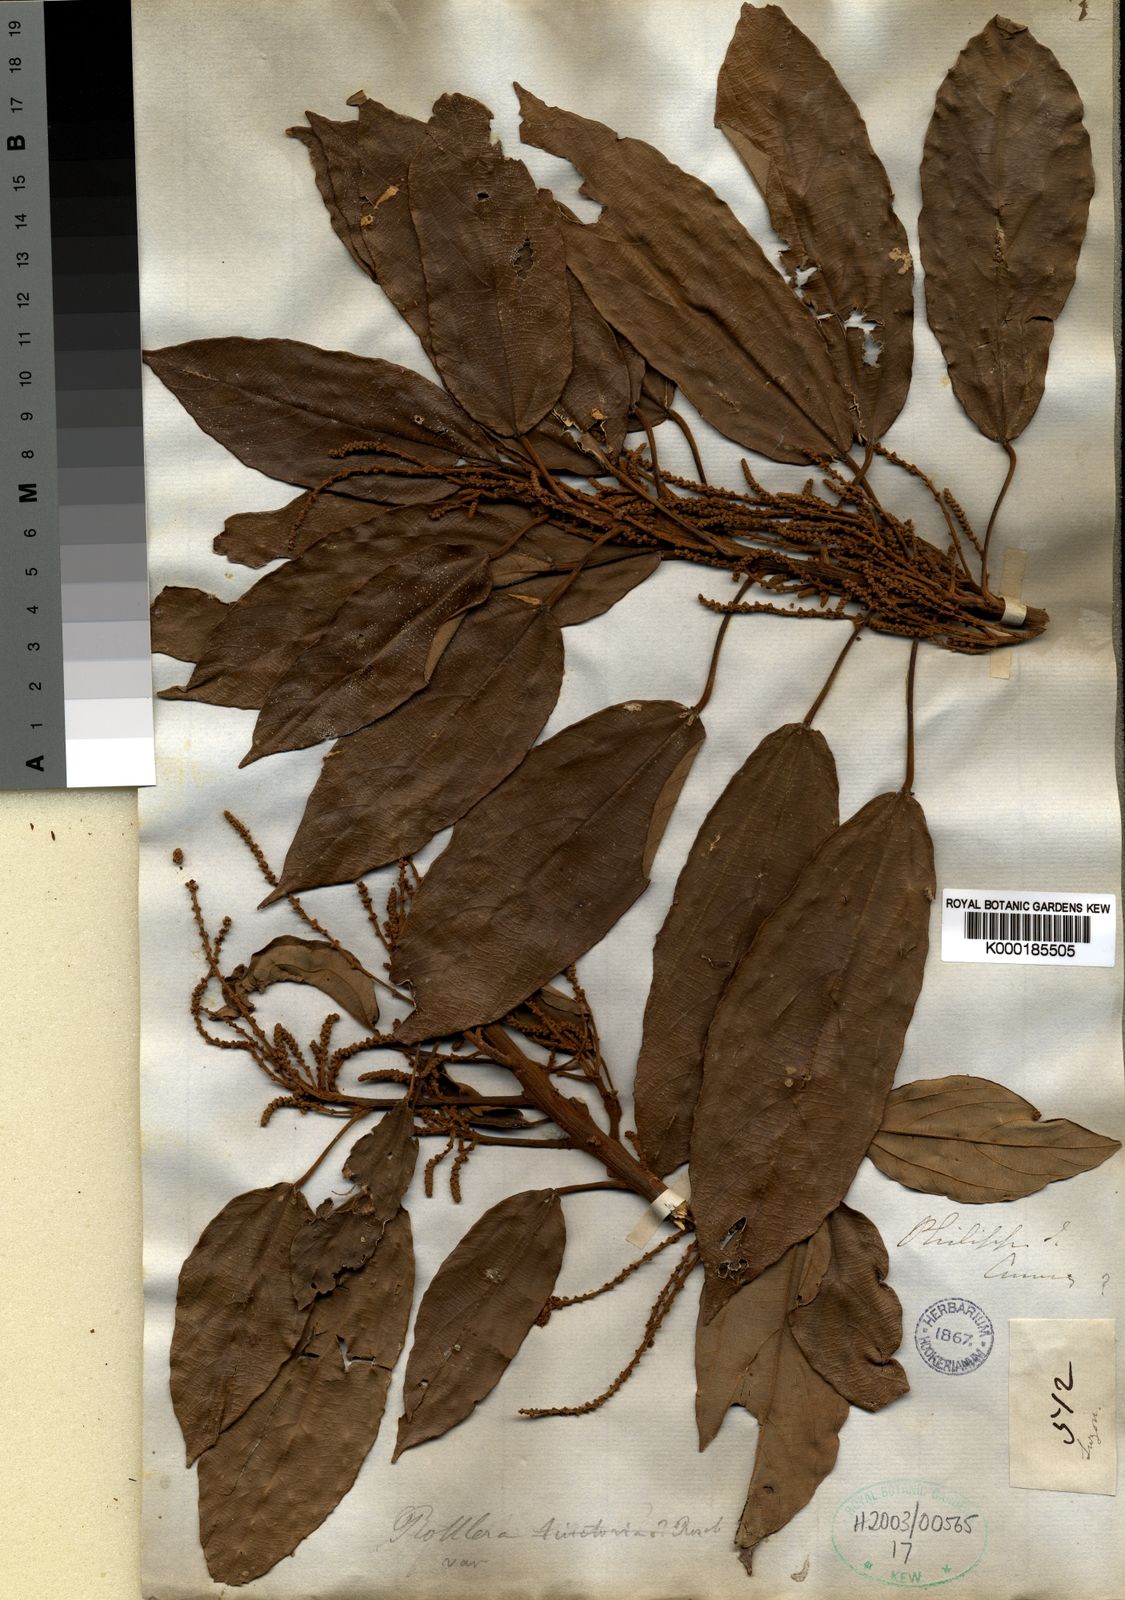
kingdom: Plantae
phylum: Tracheophyta
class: Magnoliopsida
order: Malpighiales
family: Euphorbiaceae
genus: Mallotus
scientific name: Mallotus philippensis
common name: Kamala tree
